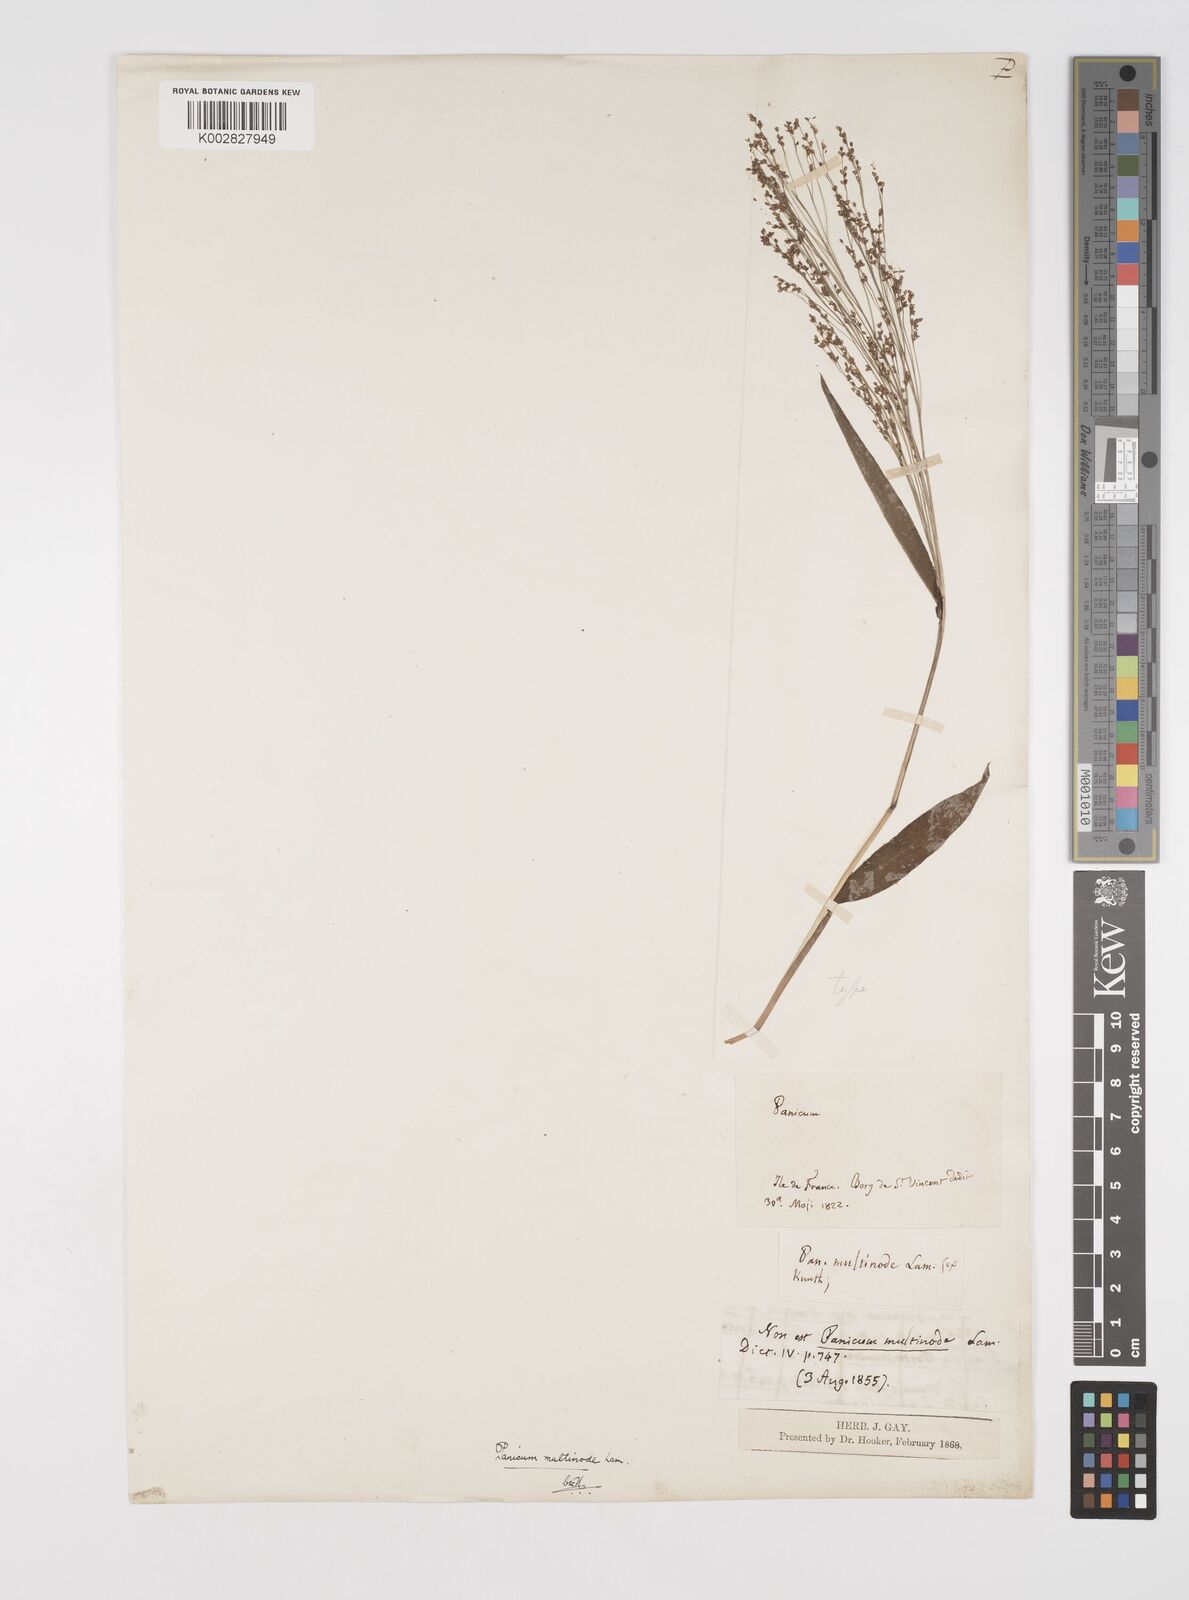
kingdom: Plantae
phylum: Tracheophyta
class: Liliopsida
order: Poales
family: Poaceae
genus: Cyrtococcum
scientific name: Cyrtococcum multinode
